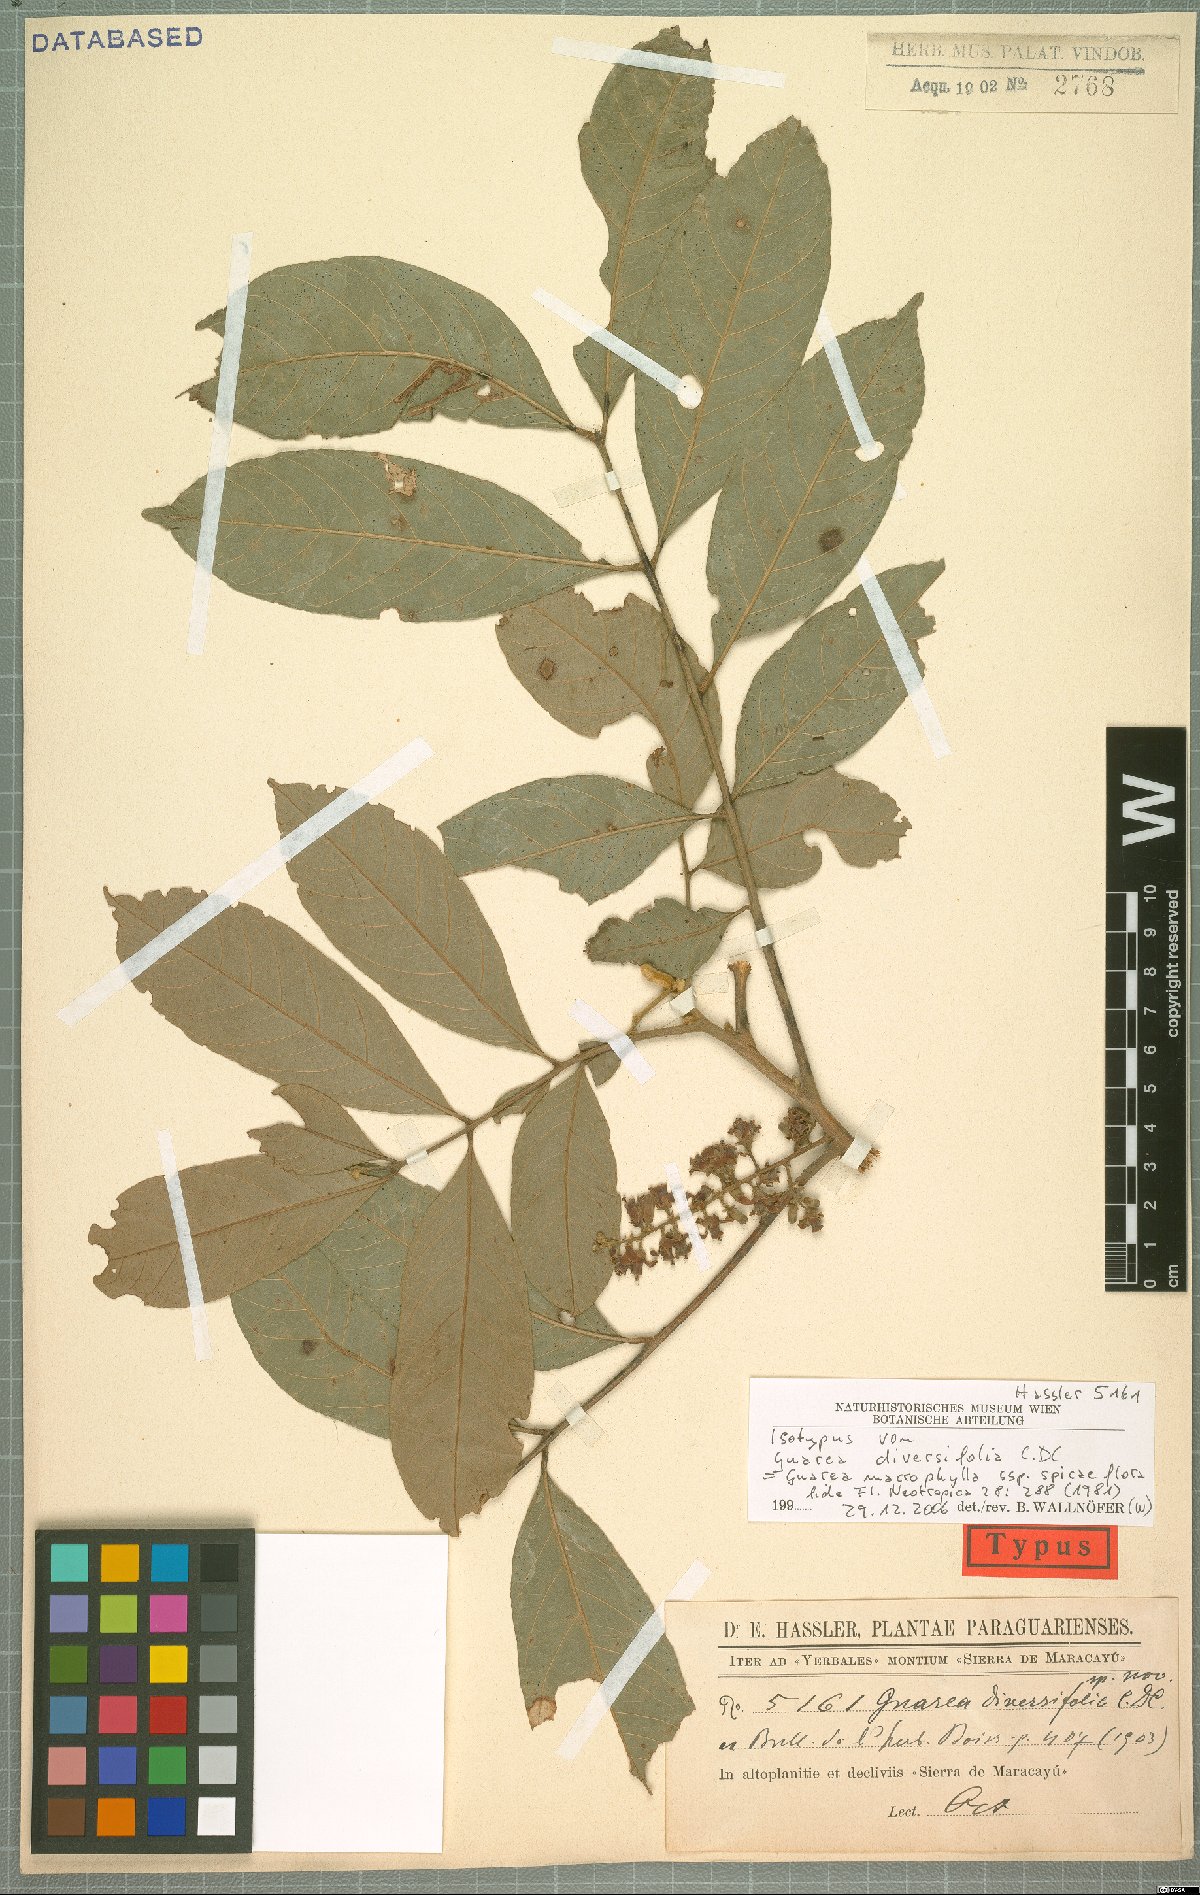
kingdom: Plantae
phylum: Tracheophyta
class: Magnoliopsida
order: Sapindales
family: Meliaceae
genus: Guarea
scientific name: Guarea macrophylla
